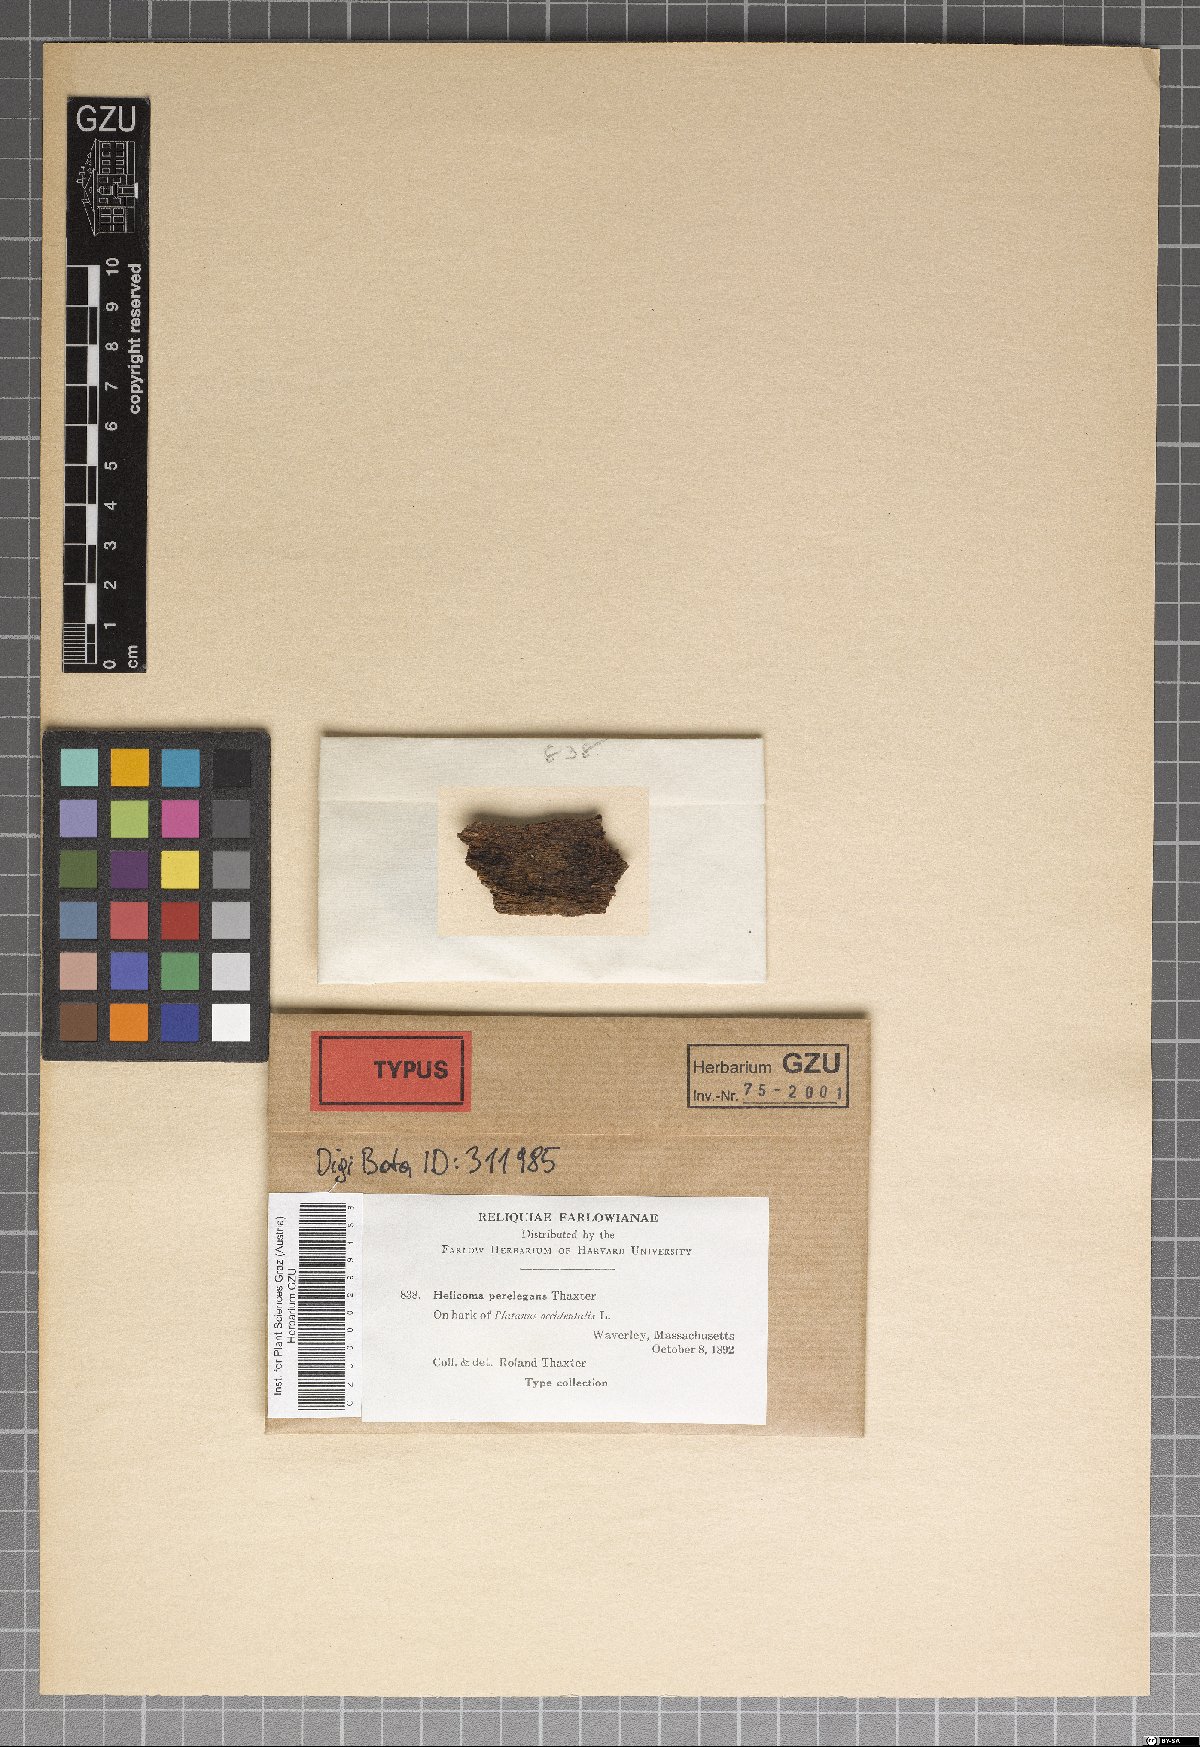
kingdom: Fungi
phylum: Ascomycota
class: Dothideomycetes
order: Tubeufiales
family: Tubeufiaceae
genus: Dematiohelicoma
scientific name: Dematiohelicoma perelegans
